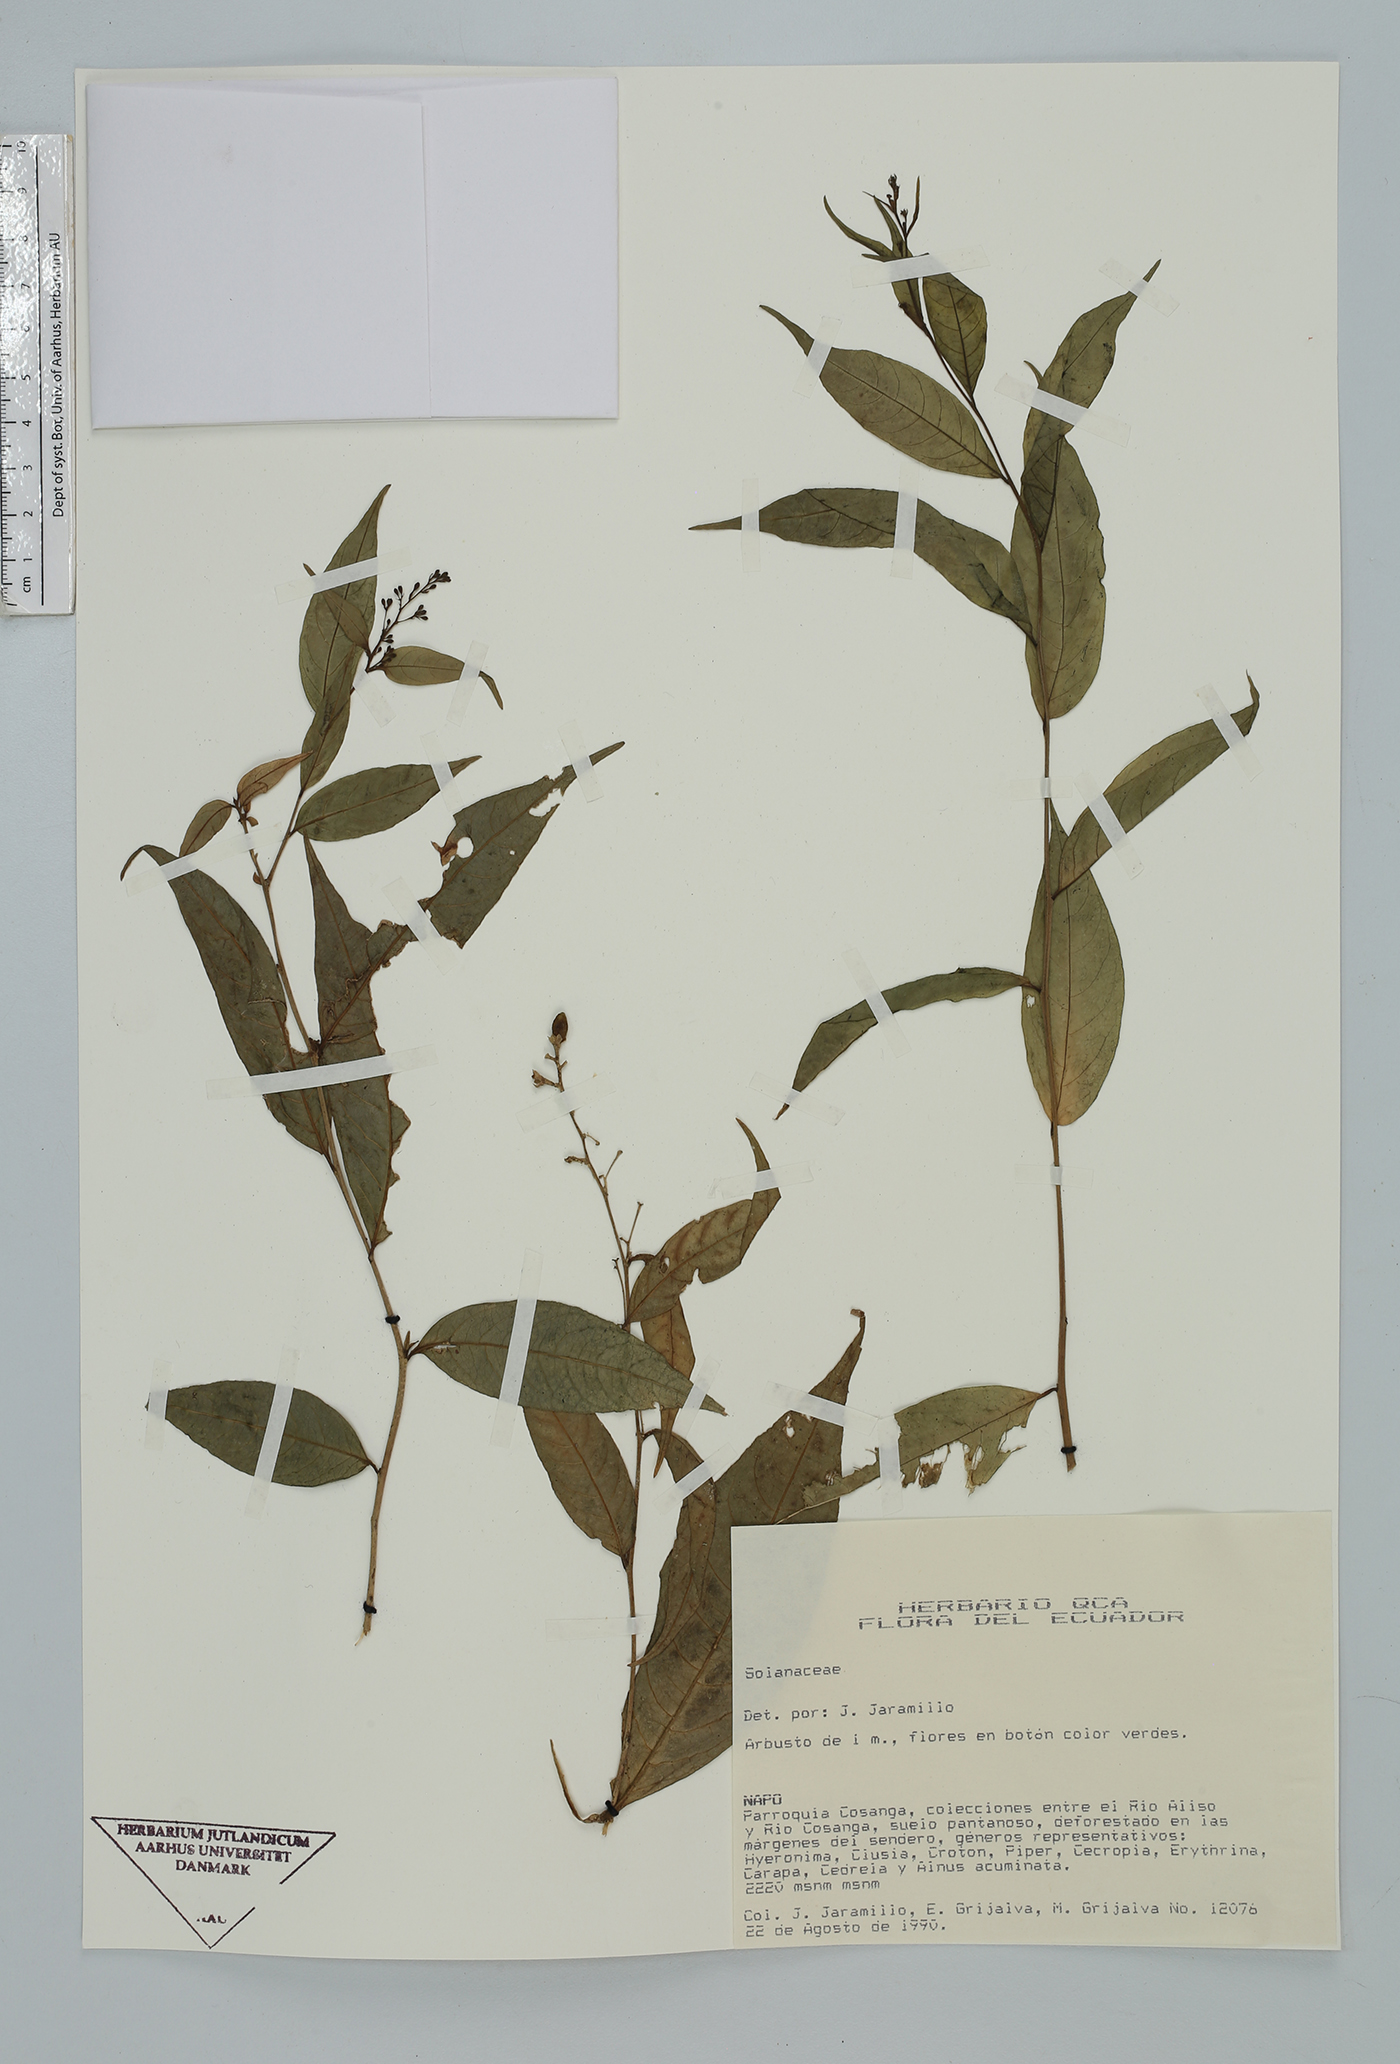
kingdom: Plantae
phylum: Tracheophyta
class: Magnoliopsida
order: Solanales
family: Solanaceae
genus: Cestrum
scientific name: Cestrum
